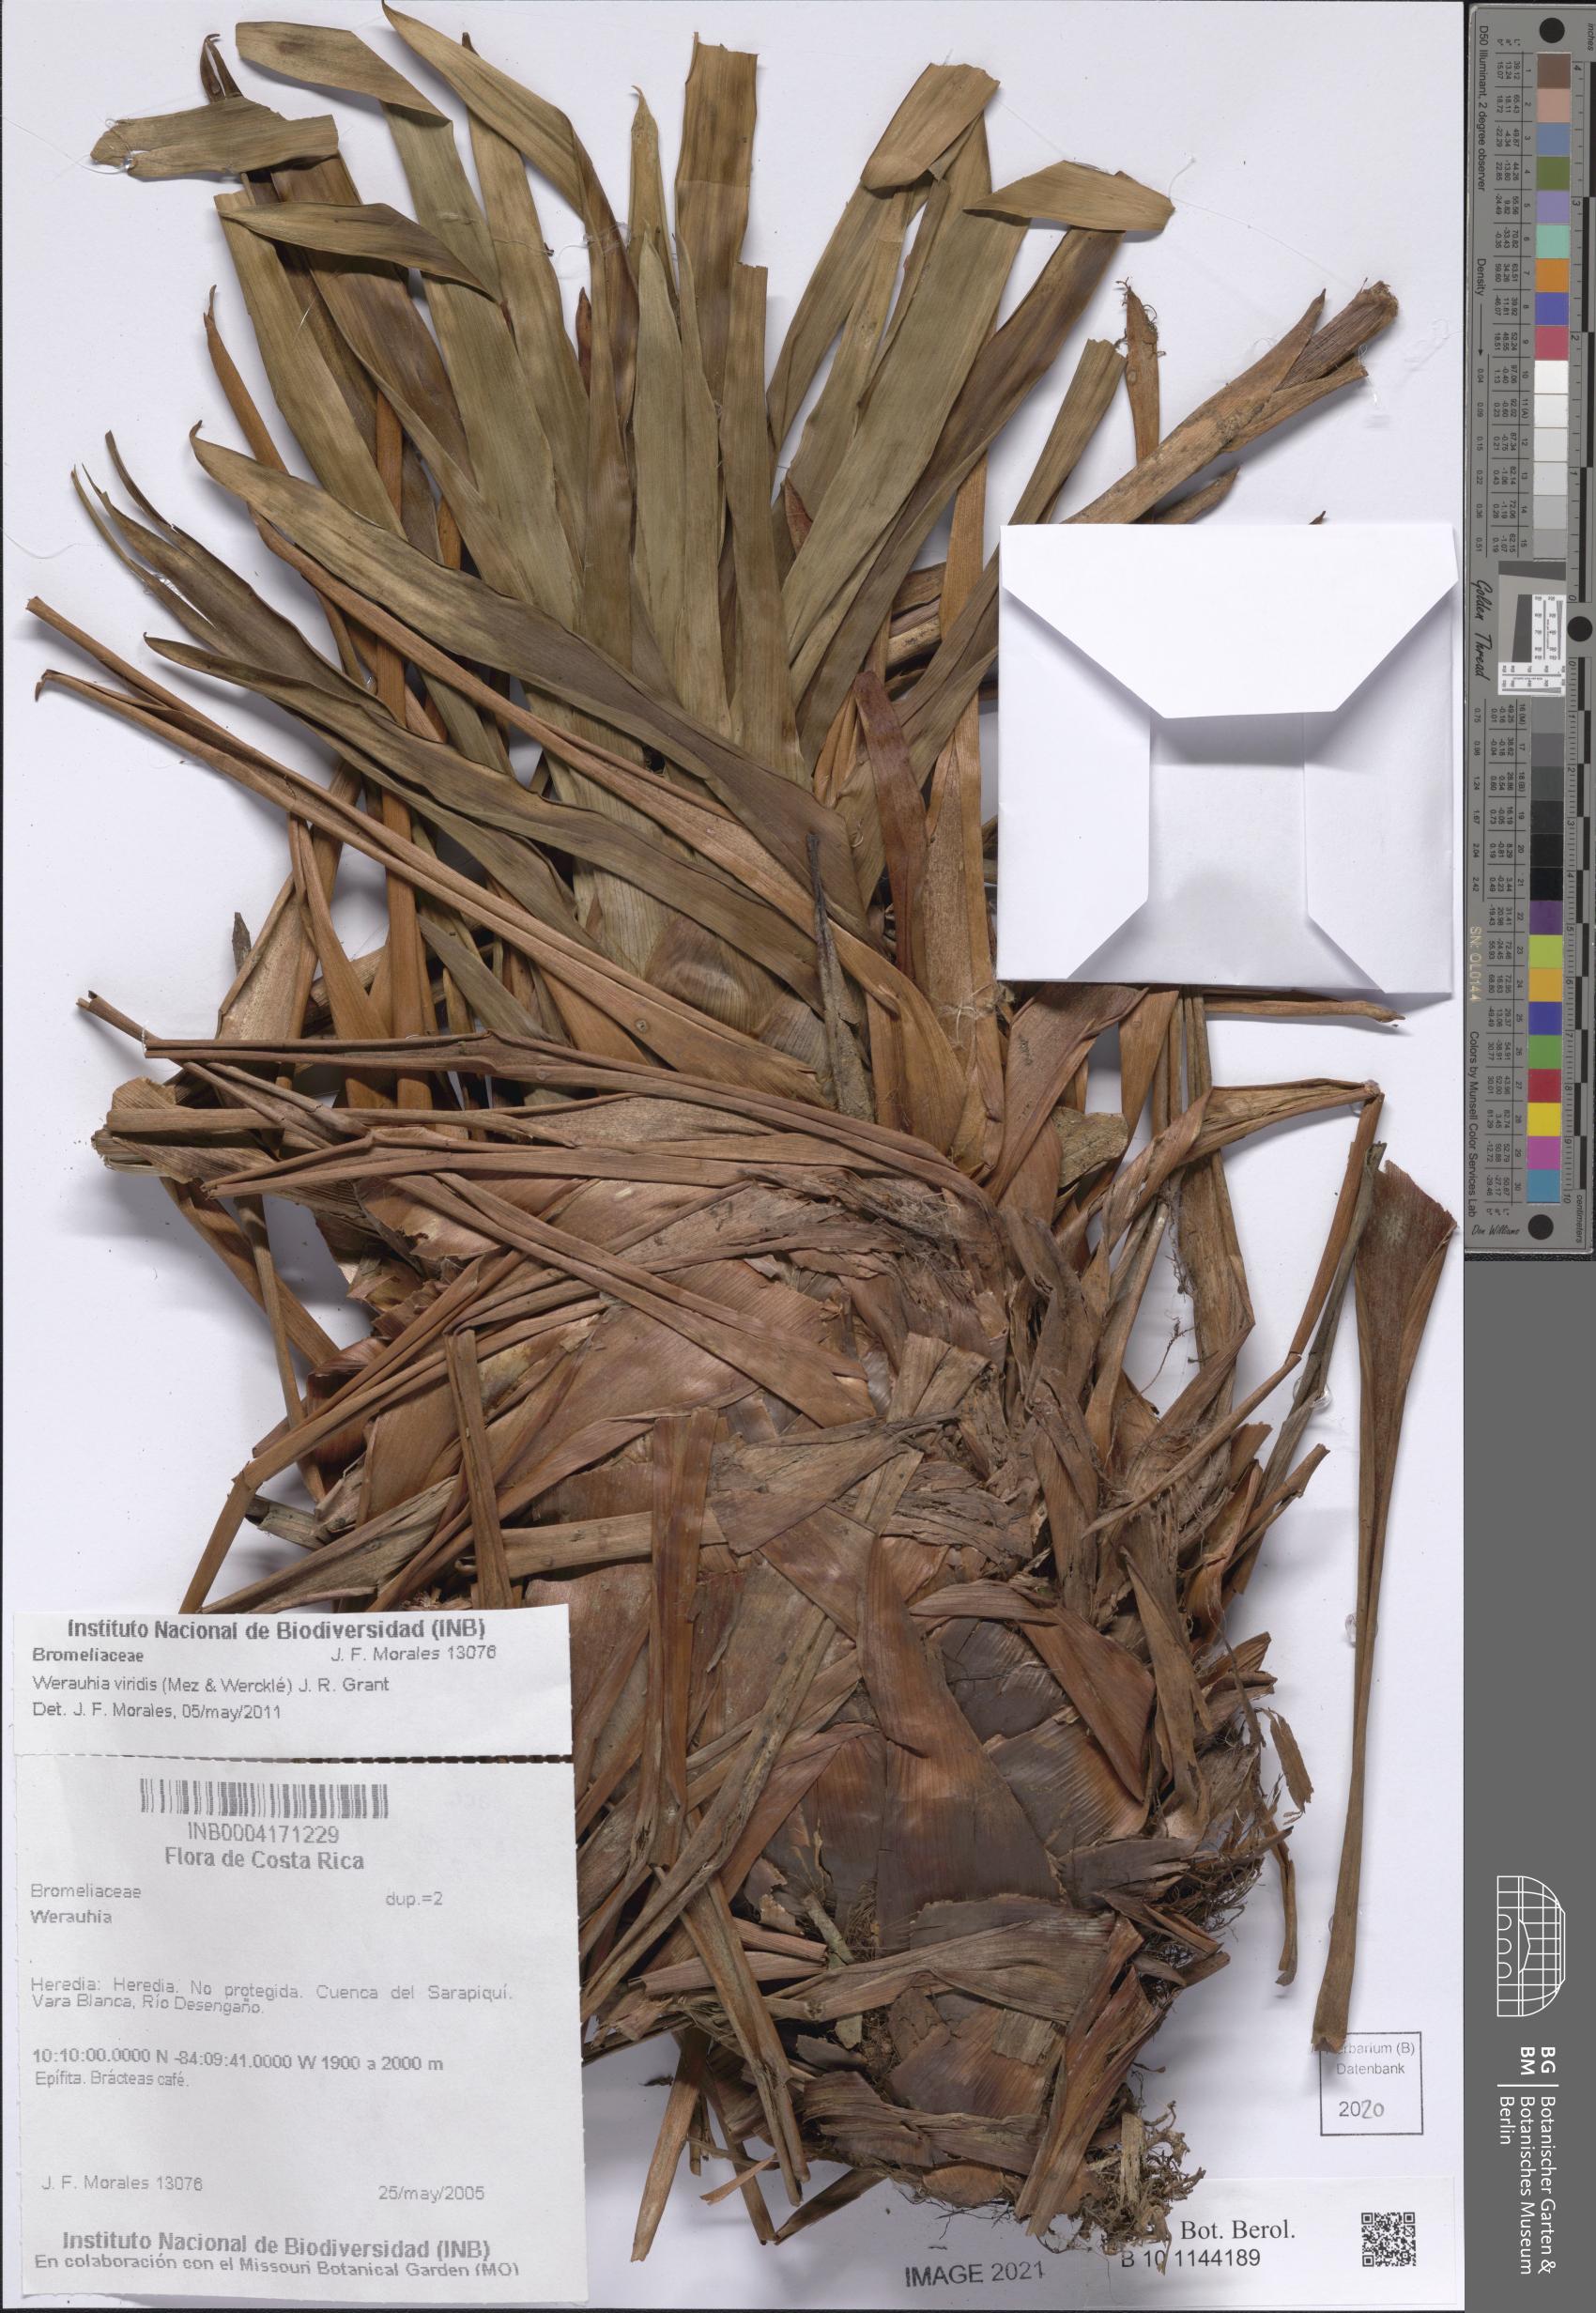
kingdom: Plantae
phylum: Tracheophyta
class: Liliopsida
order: Poales
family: Bromeliaceae
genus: Werauhia
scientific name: Werauhia viridis
